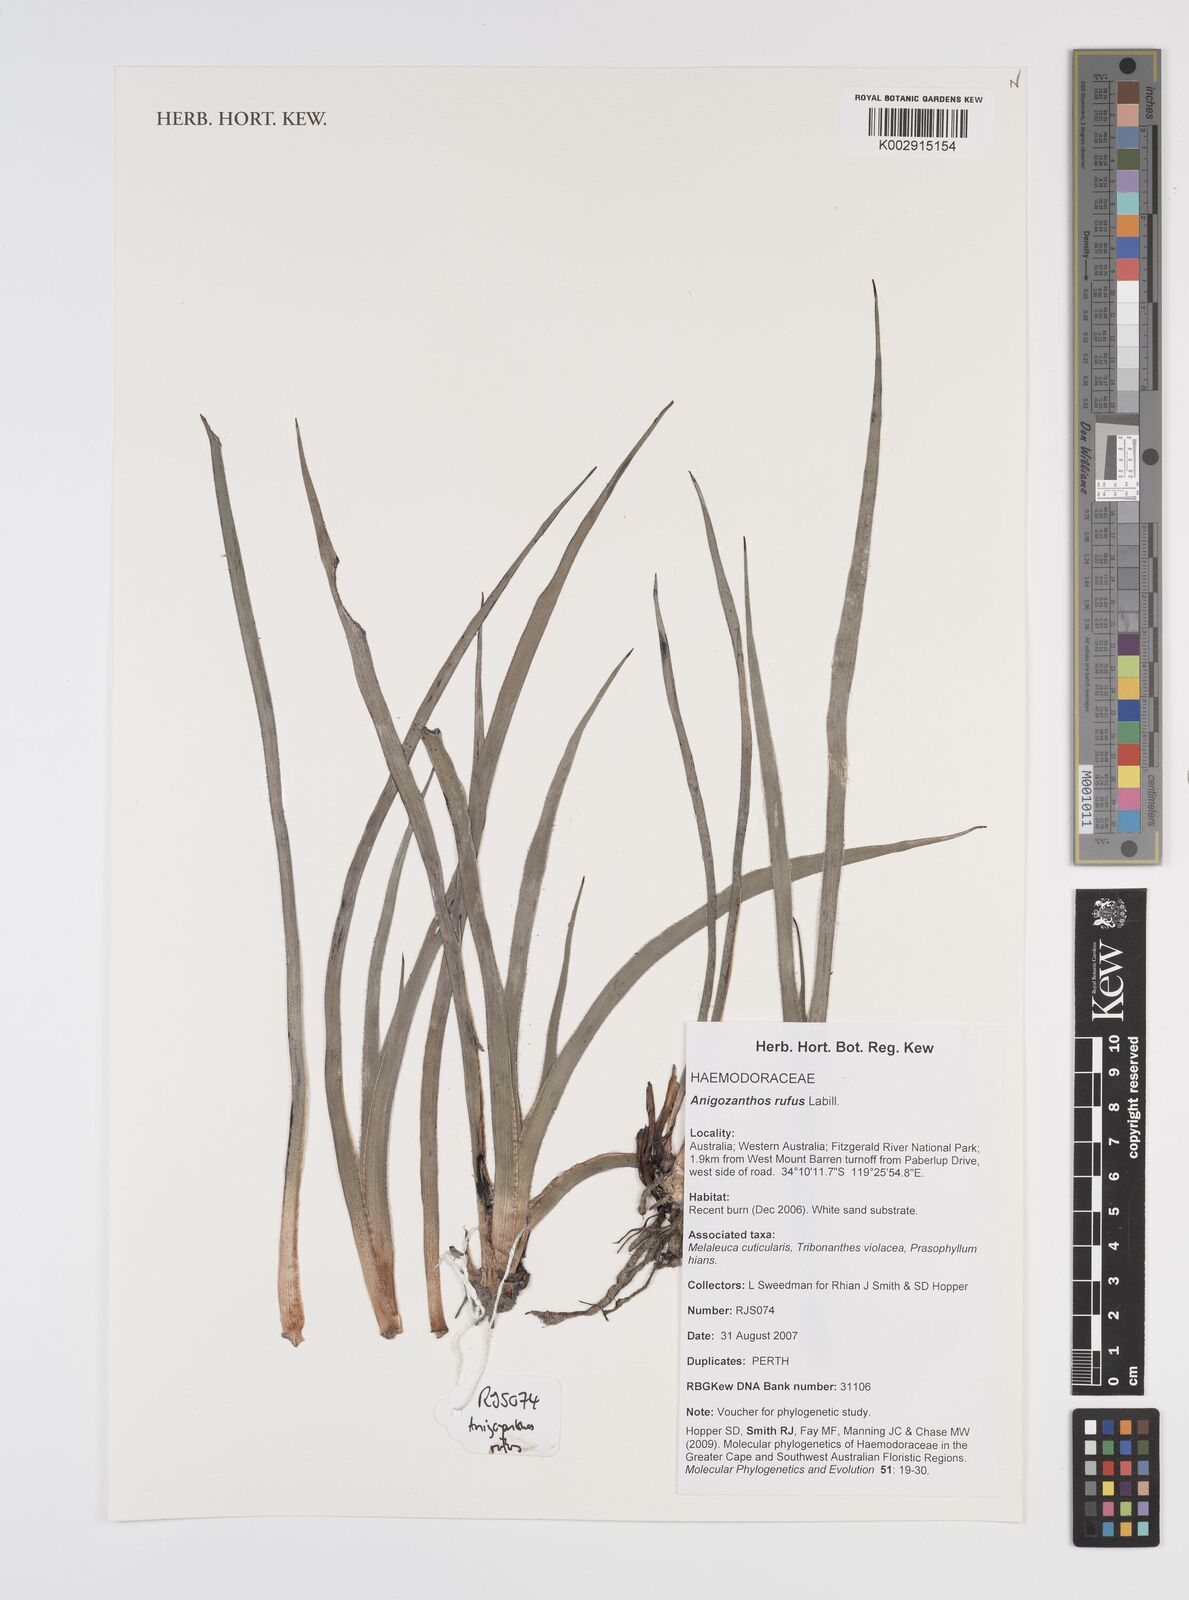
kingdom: Plantae
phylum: Tracheophyta
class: Liliopsida
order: Commelinales
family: Haemodoraceae
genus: Anigozanthos
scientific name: Anigozanthos rufus
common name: Red kangaroo-paw
